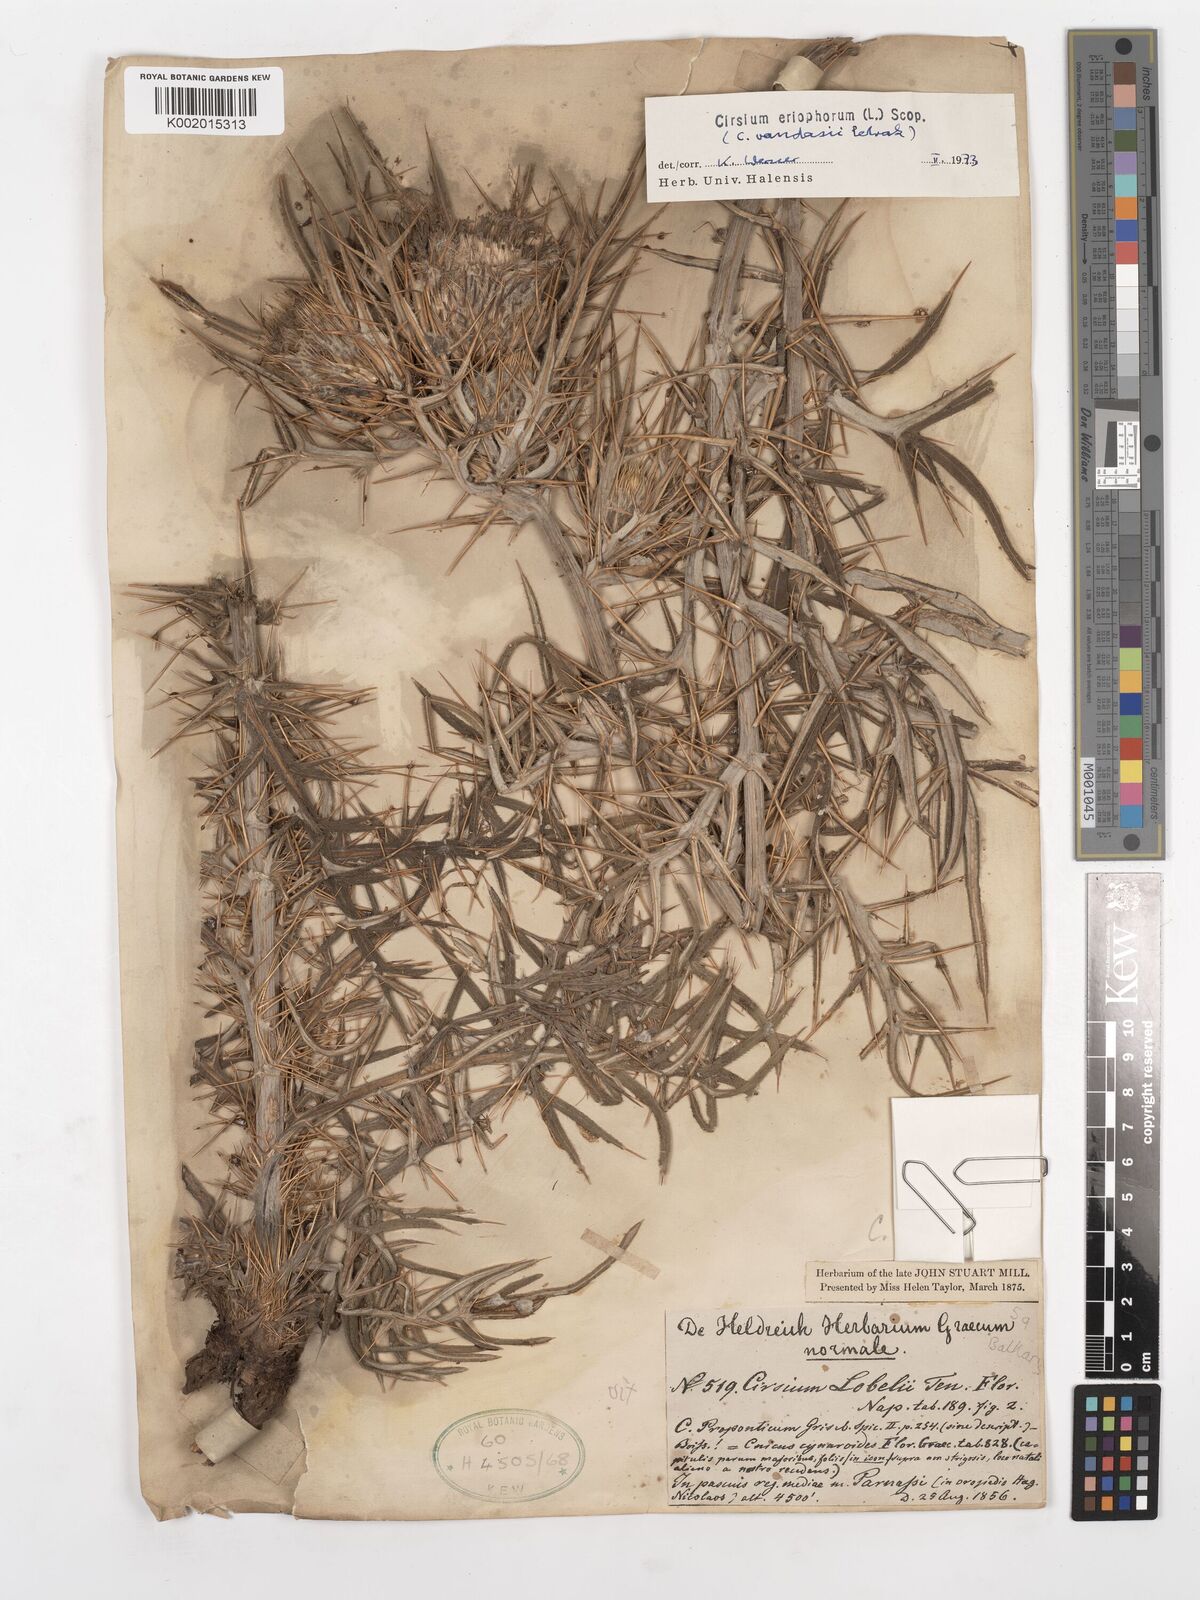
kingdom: Plantae
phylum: Tracheophyta
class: Magnoliopsida
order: Asterales
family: Asteraceae
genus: Lophiolepis
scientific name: Lophiolepis eriophora
